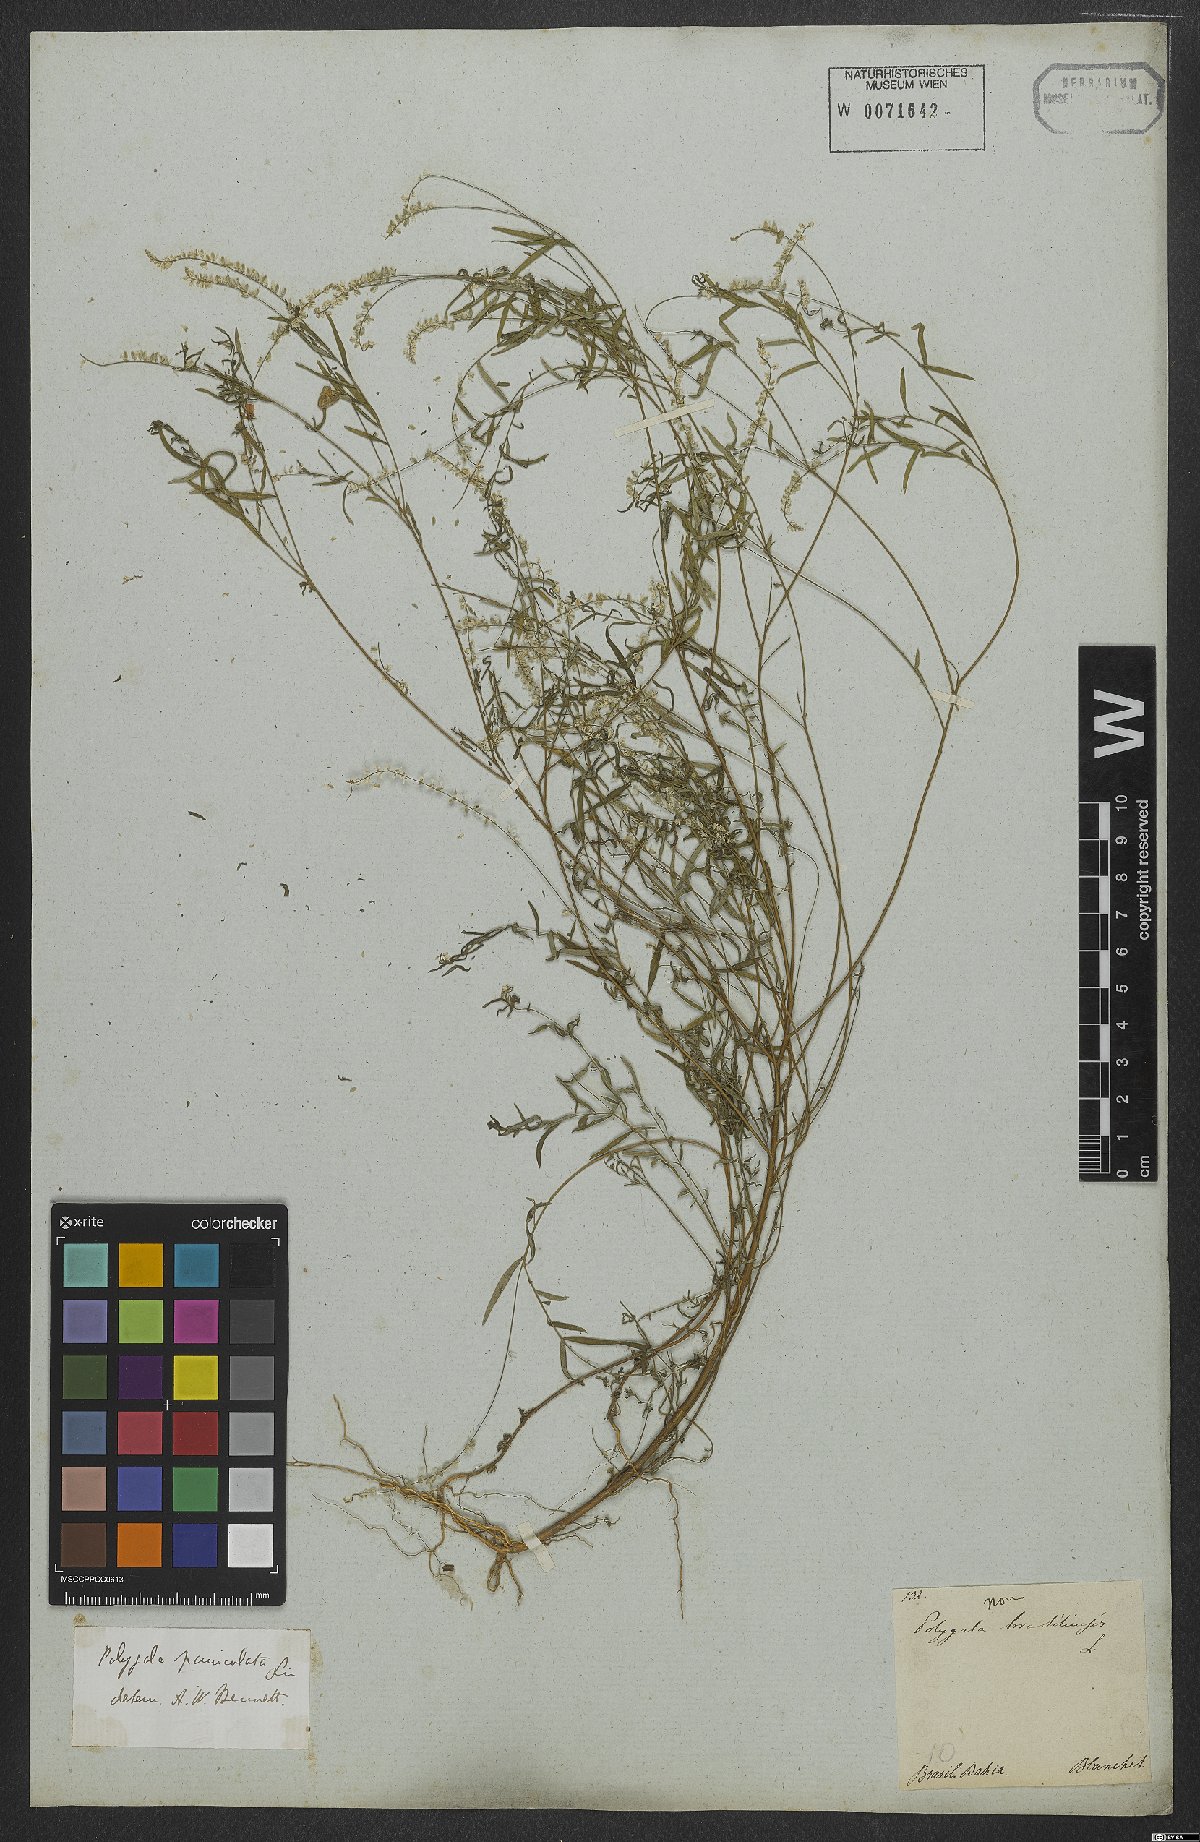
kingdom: Plantae
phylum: Tracheophyta
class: Magnoliopsida
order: Fabales
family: Polygalaceae
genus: Polygala
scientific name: Polygala exilis
